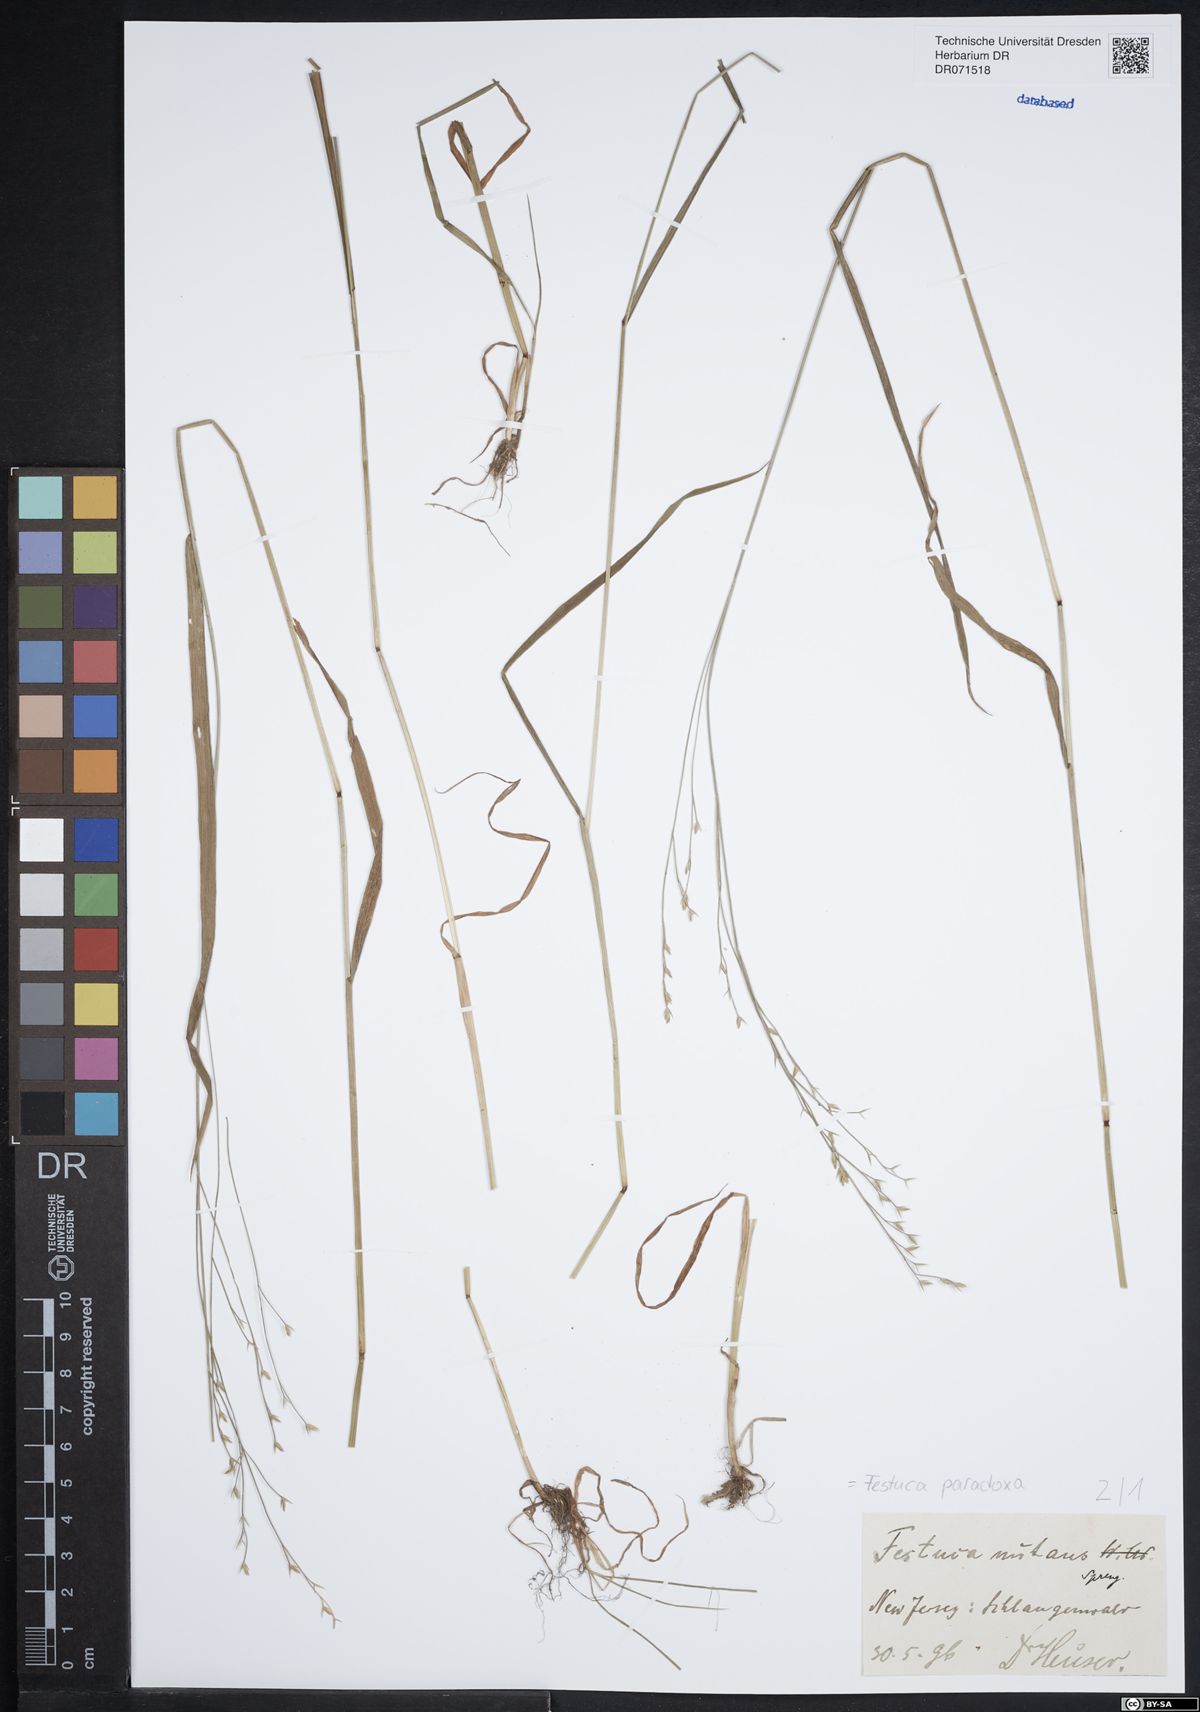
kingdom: Plantae
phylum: Tracheophyta
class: Liliopsida
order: Poales
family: Poaceae
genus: Festuca
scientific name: Festuca paradoxa
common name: Cluster fescue
